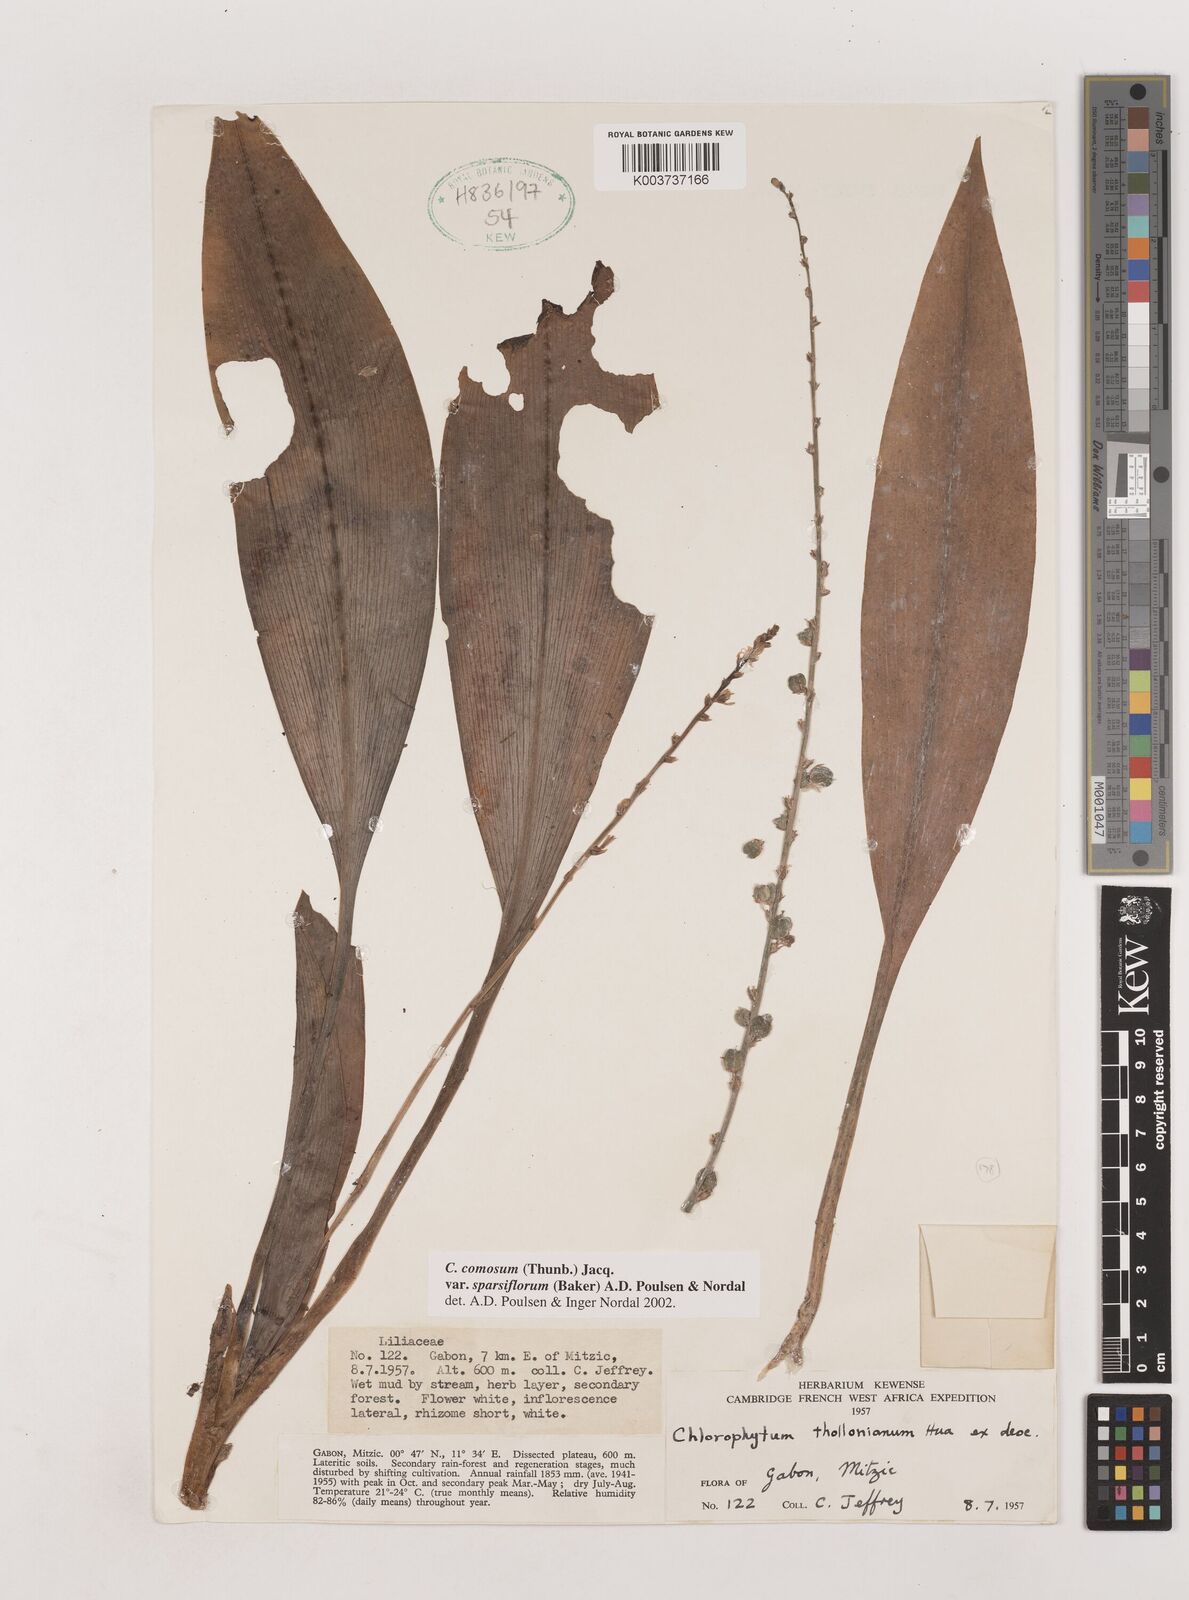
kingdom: Plantae
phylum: Tracheophyta
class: Liliopsida
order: Asparagales
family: Asparagaceae
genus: Chlorophytum
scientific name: Chlorophytum sparsiflorum
